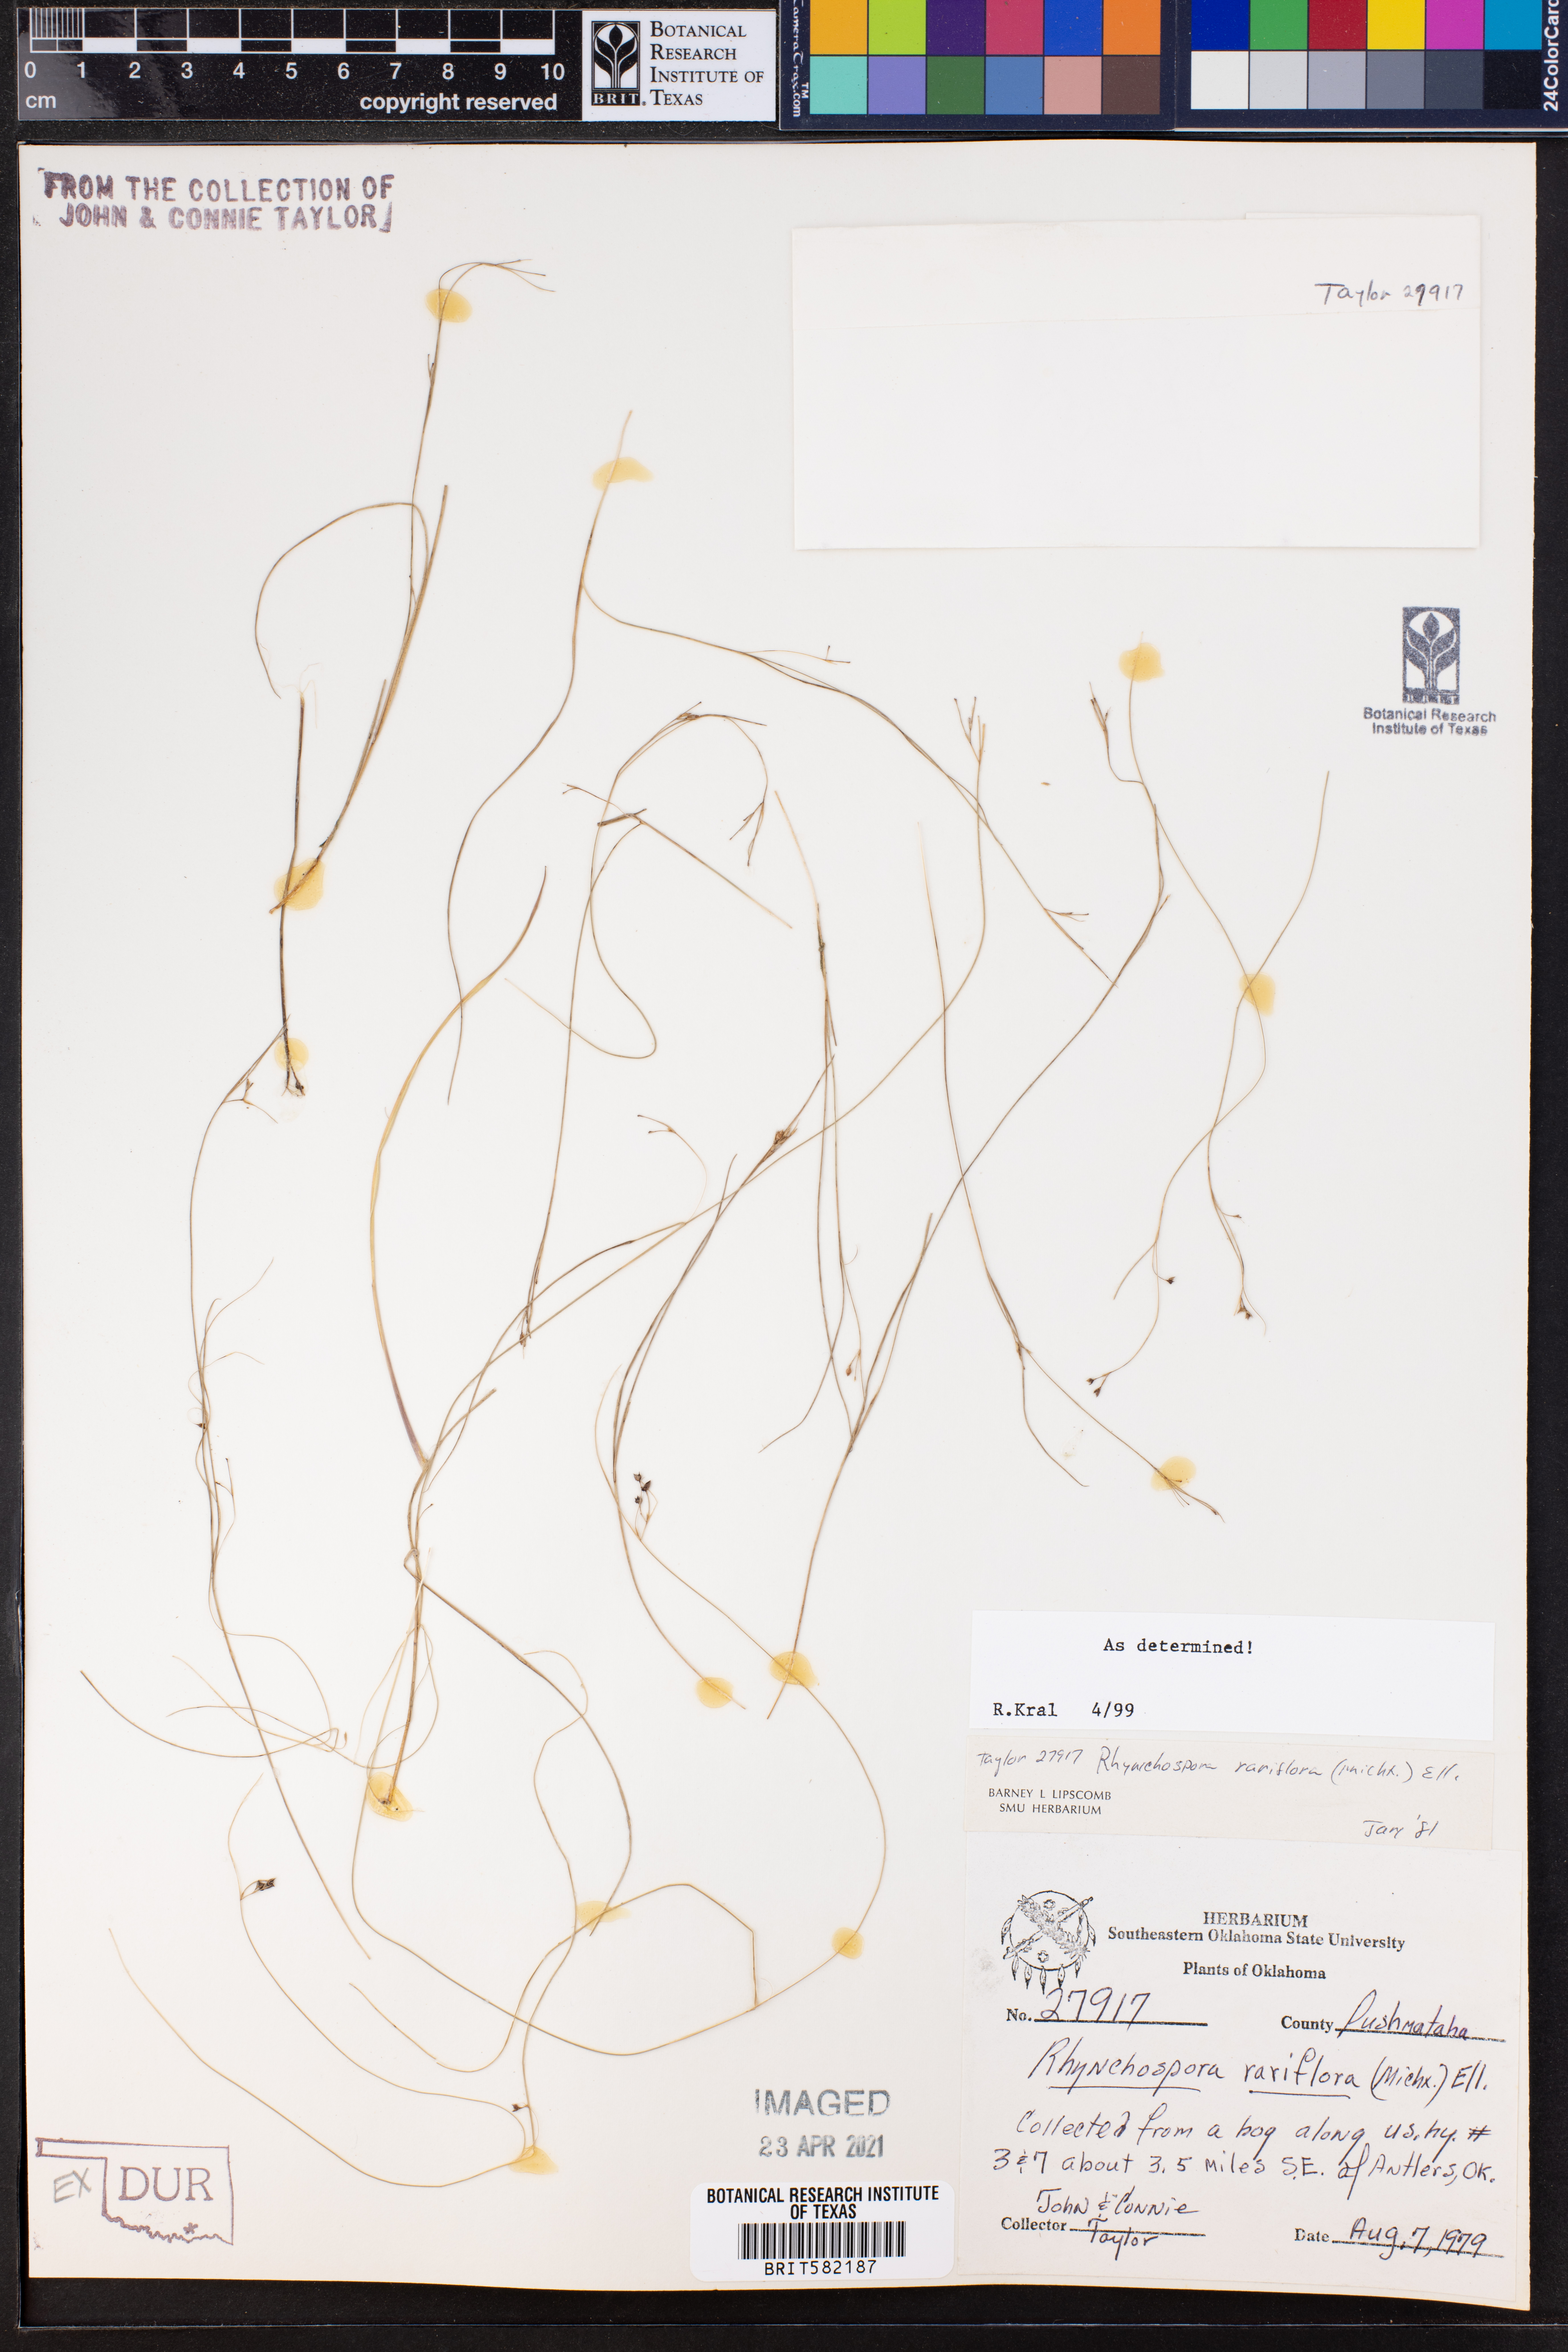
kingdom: Plantae
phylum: Tracheophyta
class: Liliopsida
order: Poales
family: Cyperaceae
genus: Rhynchospora
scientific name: Rhynchospora rariflora
